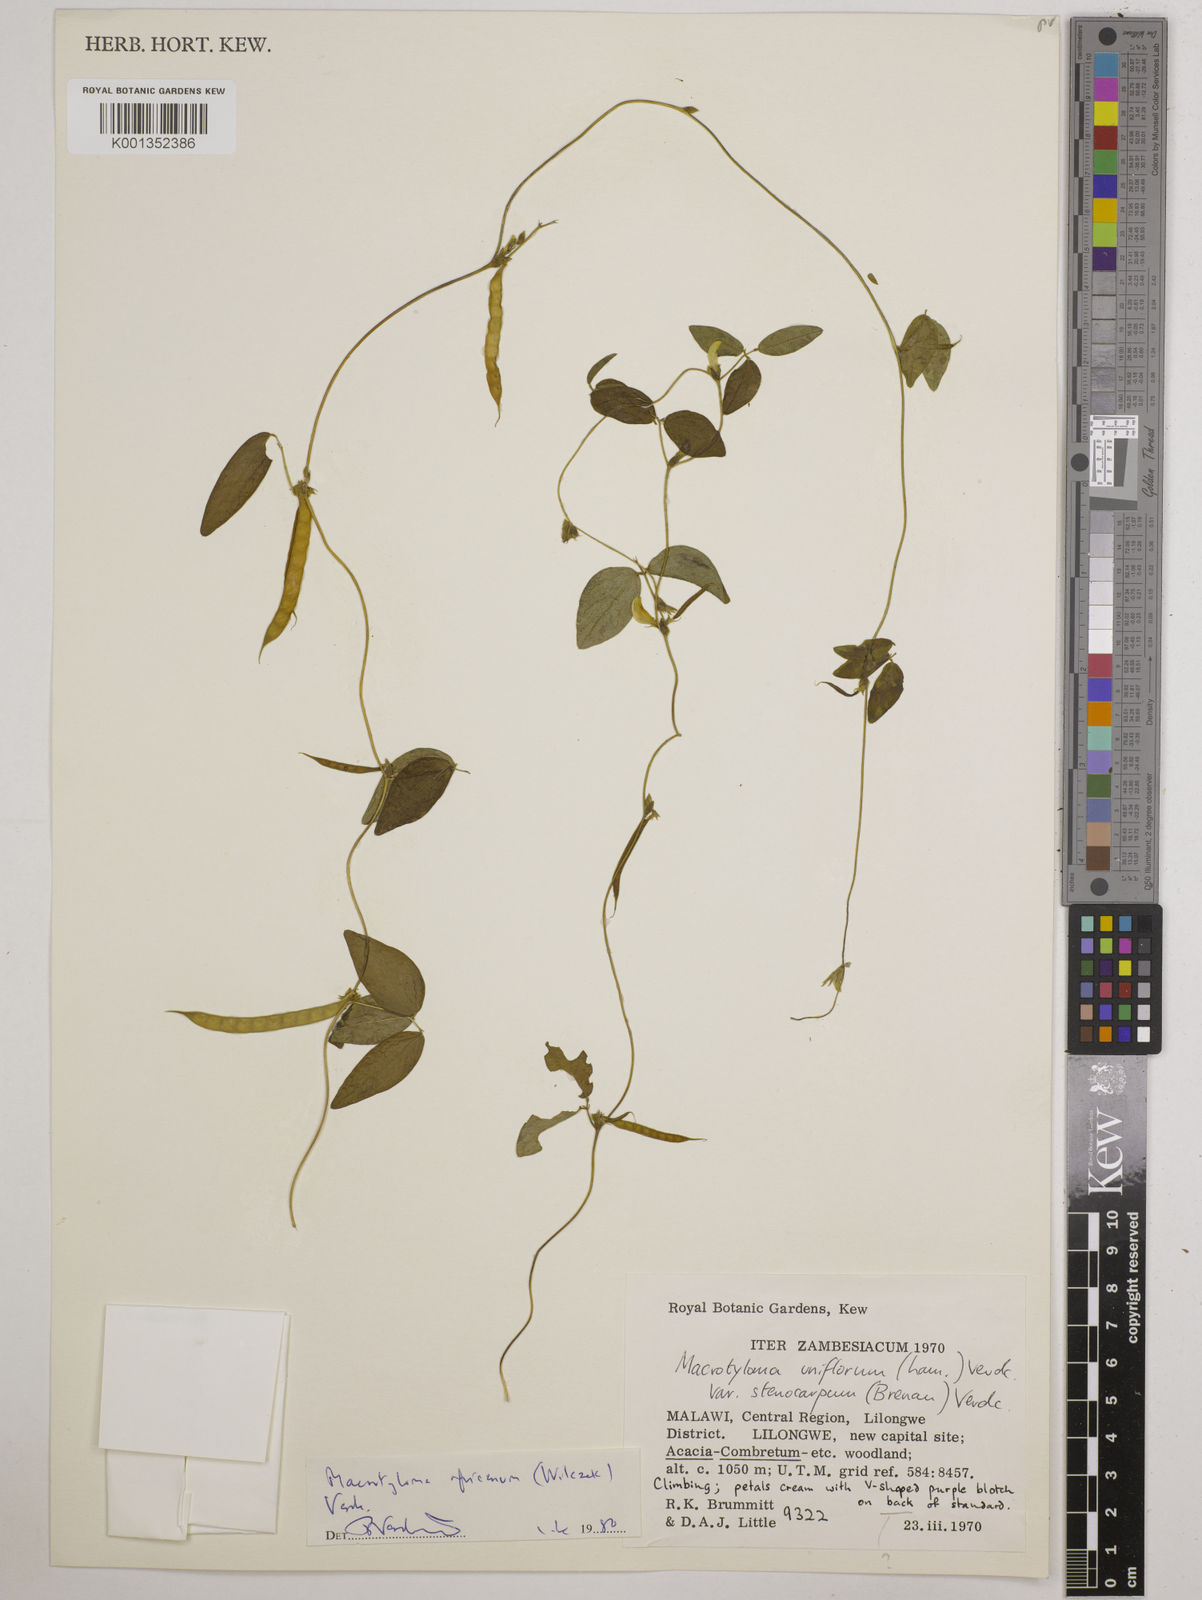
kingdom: Plantae
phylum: Tracheophyta
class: Magnoliopsida
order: Fabales
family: Fabaceae
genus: Macrotyloma
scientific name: Macrotyloma africanum
